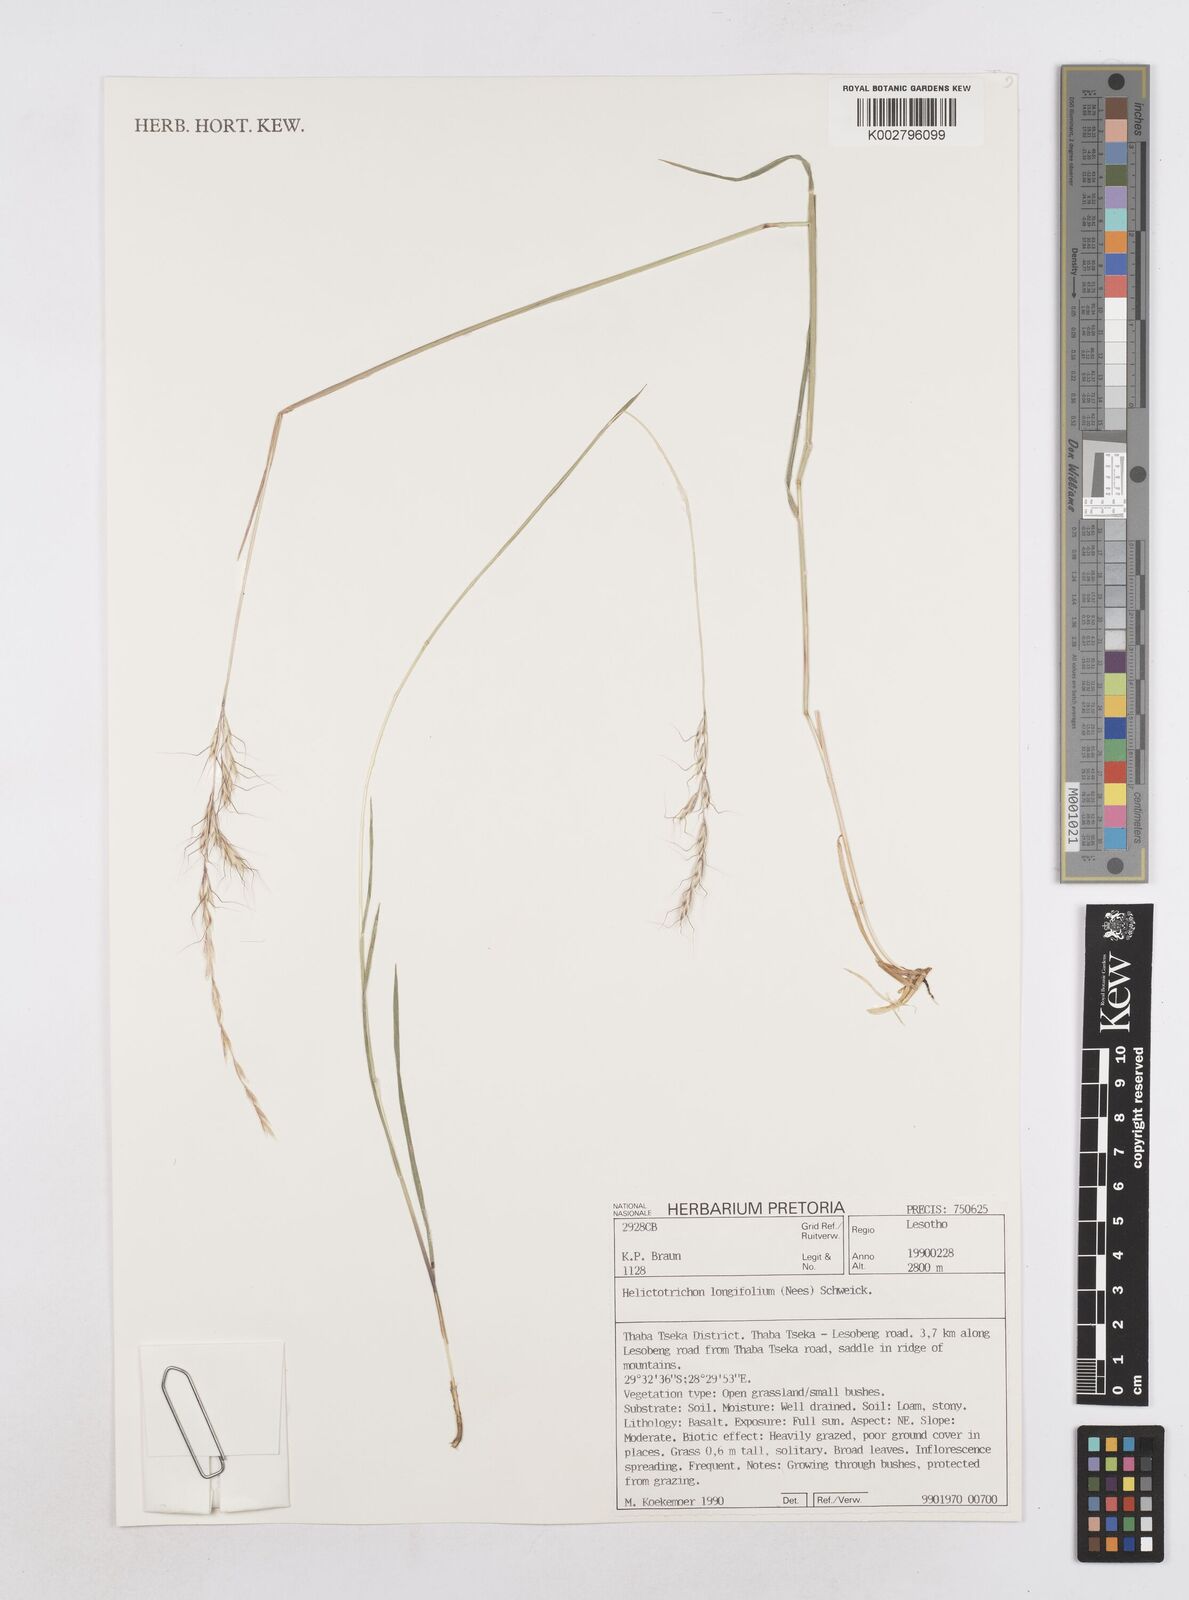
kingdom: Plantae
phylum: Tracheophyta
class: Liliopsida
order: Poales
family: Poaceae
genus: Trisetopsis
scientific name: Trisetopsis longifolia
